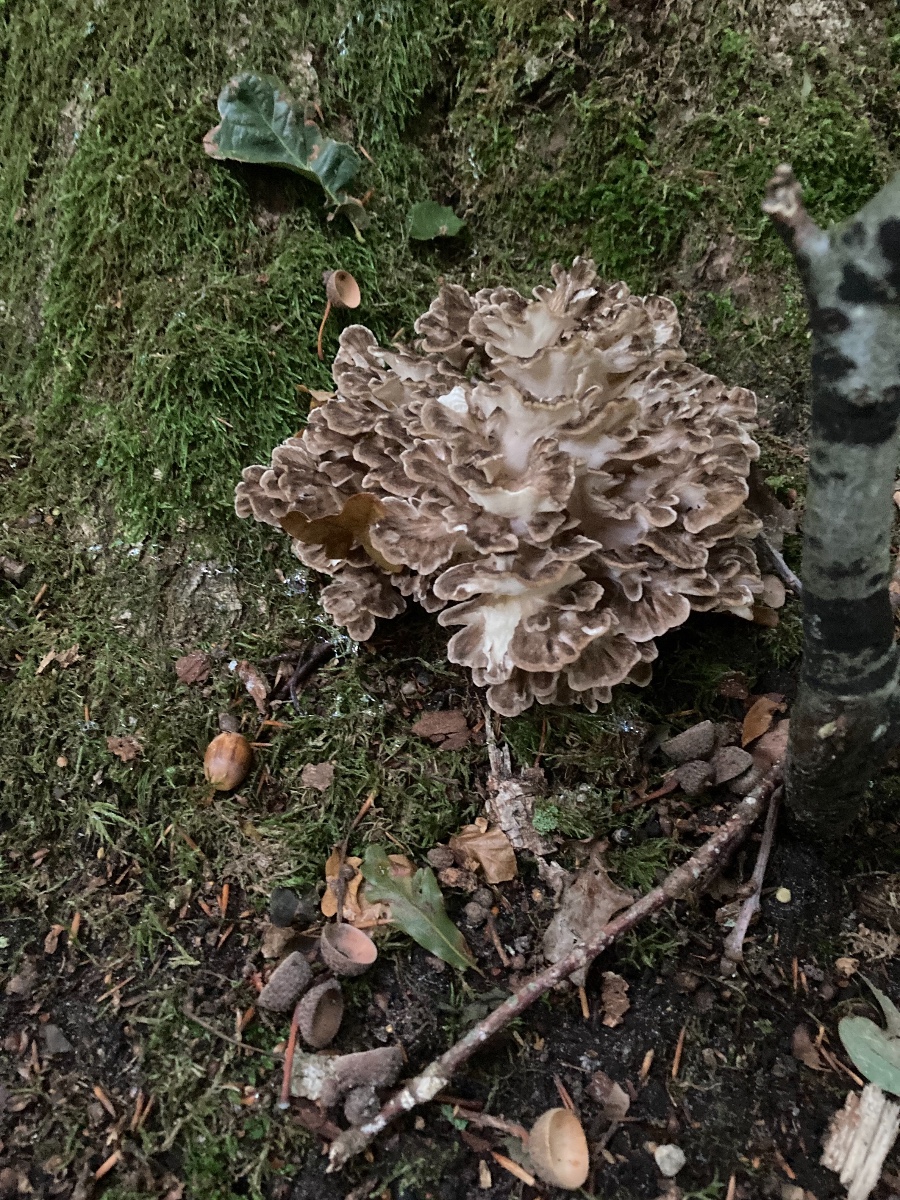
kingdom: Fungi
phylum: Basidiomycota
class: Agaricomycetes
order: Polyporales
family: Grifolaceae
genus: Grifola
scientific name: Grifola frondosa
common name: tueporesvamp
